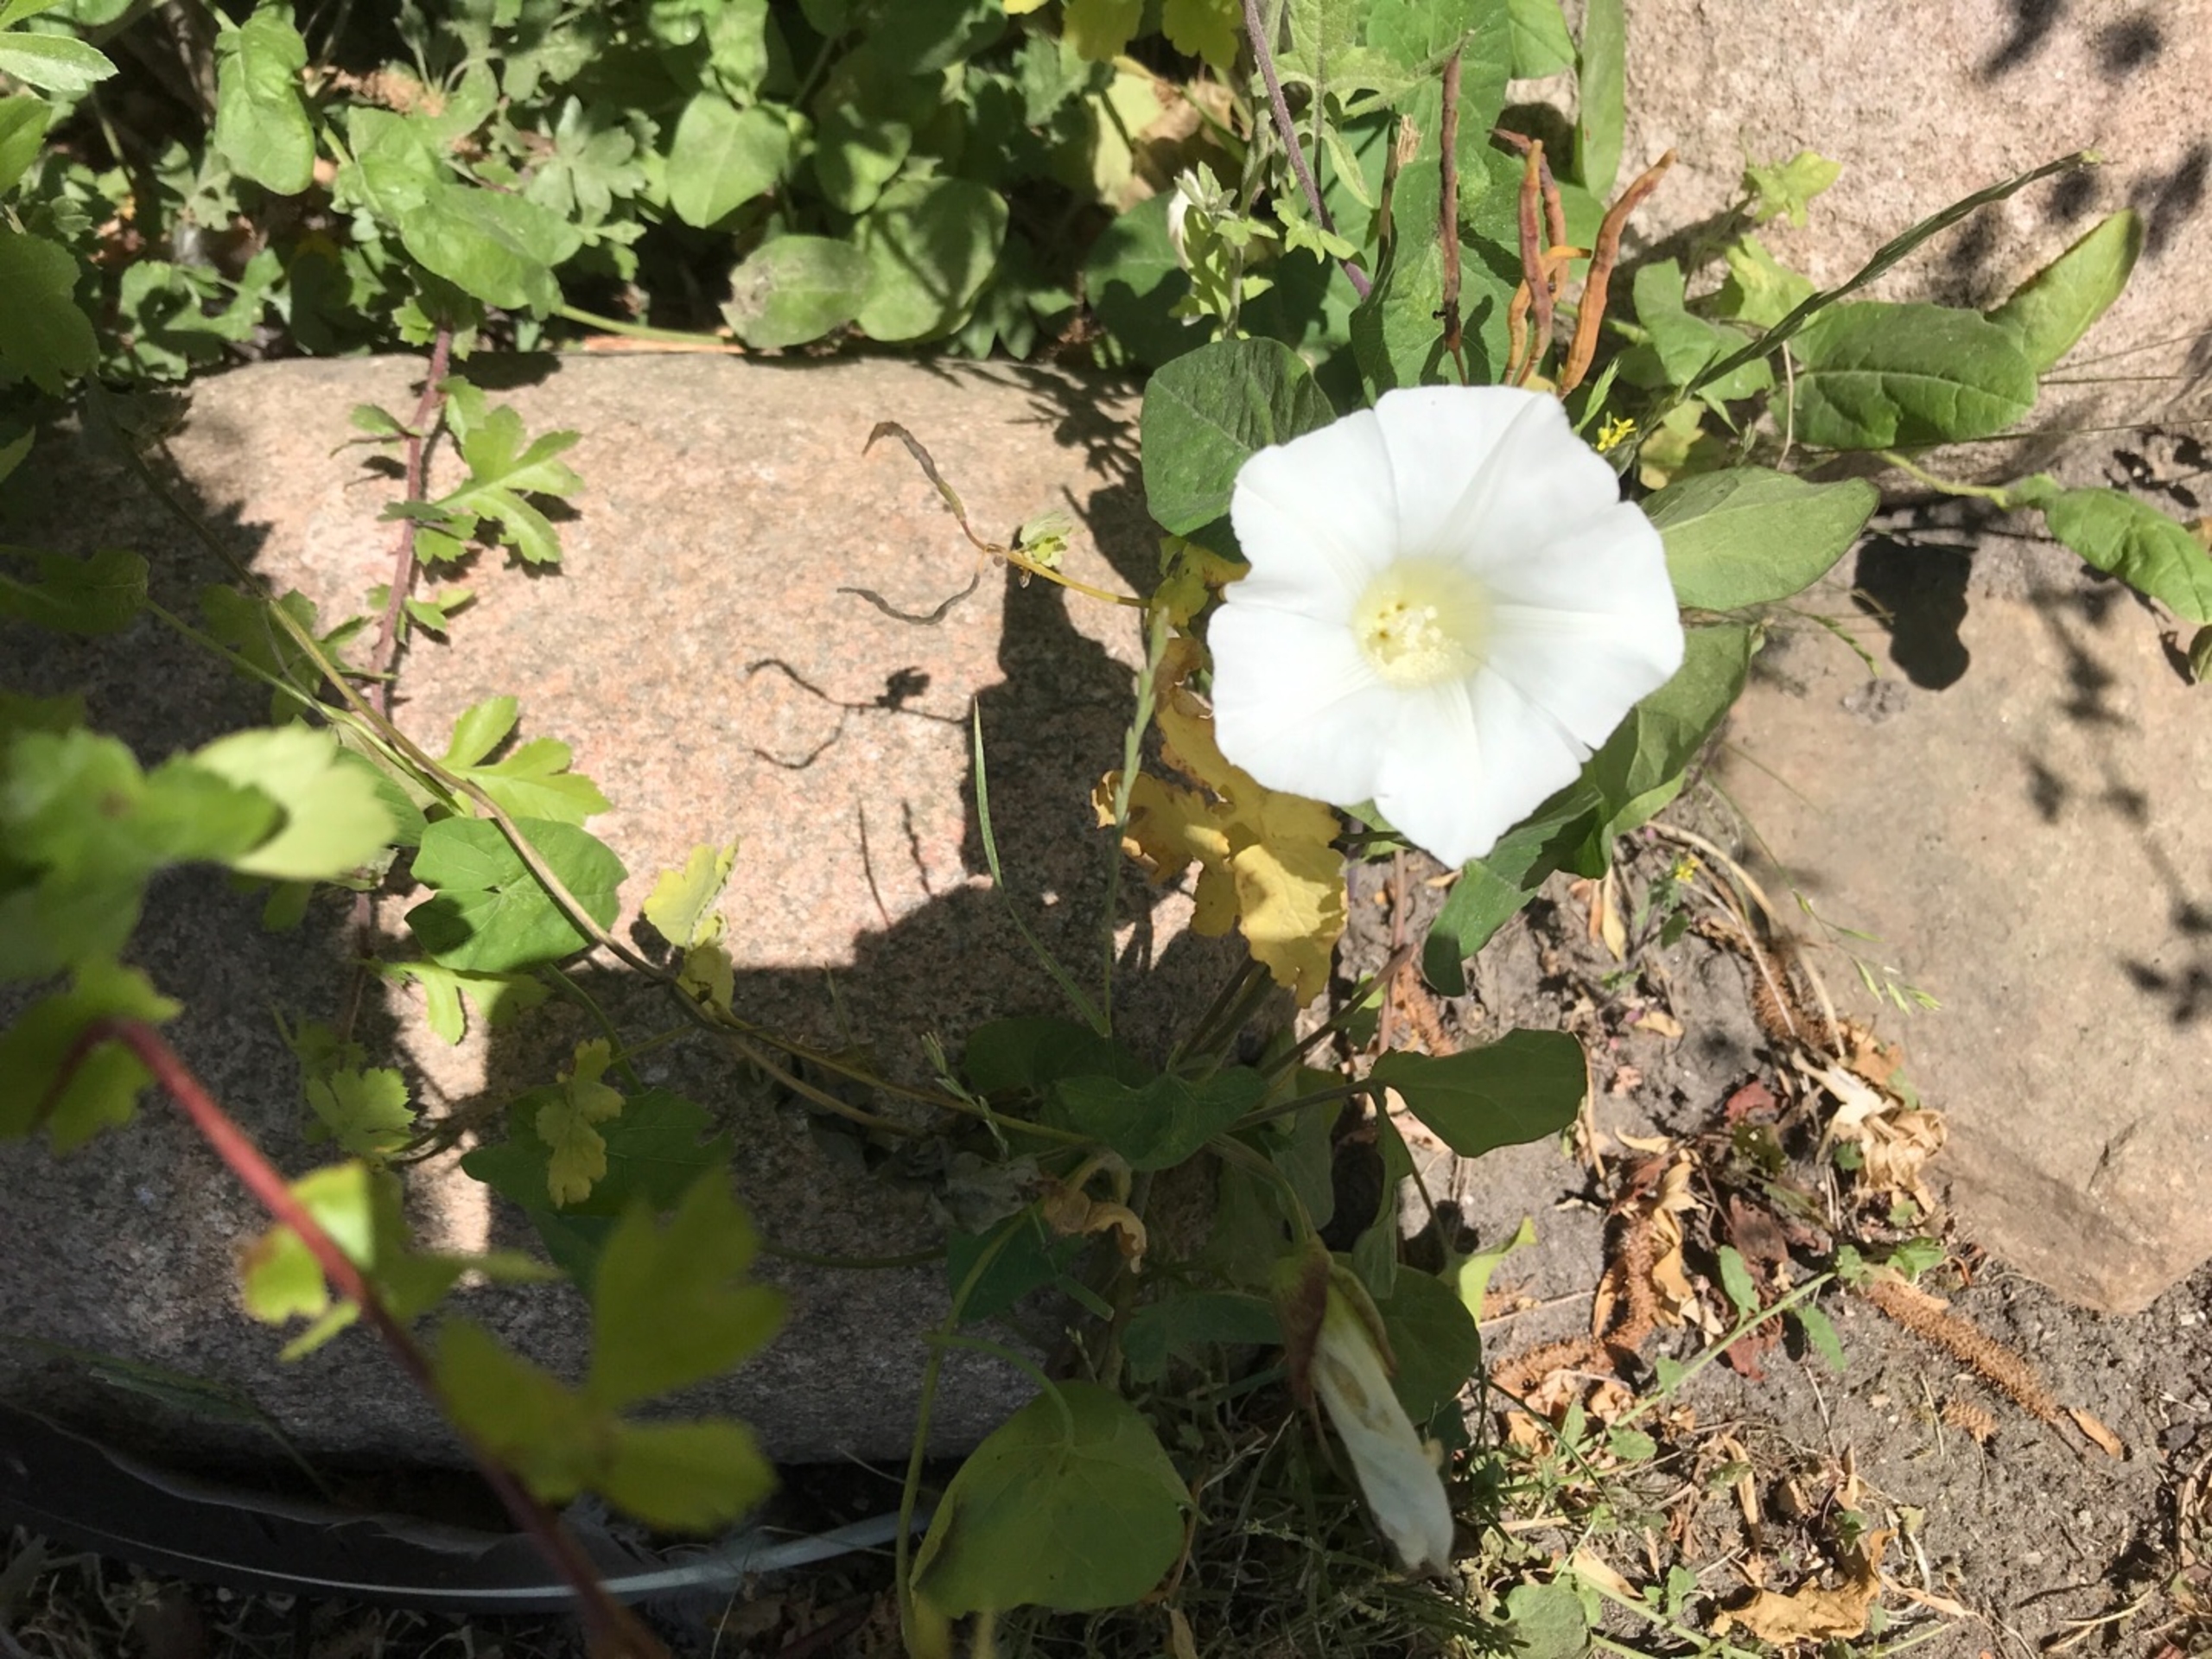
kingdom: Plantae
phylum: Tracheophyta
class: Magnoliopsida
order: Solanales
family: Convolvulaceae
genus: Calystegia
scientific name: Calystegia sepium
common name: Gærde-snerle
